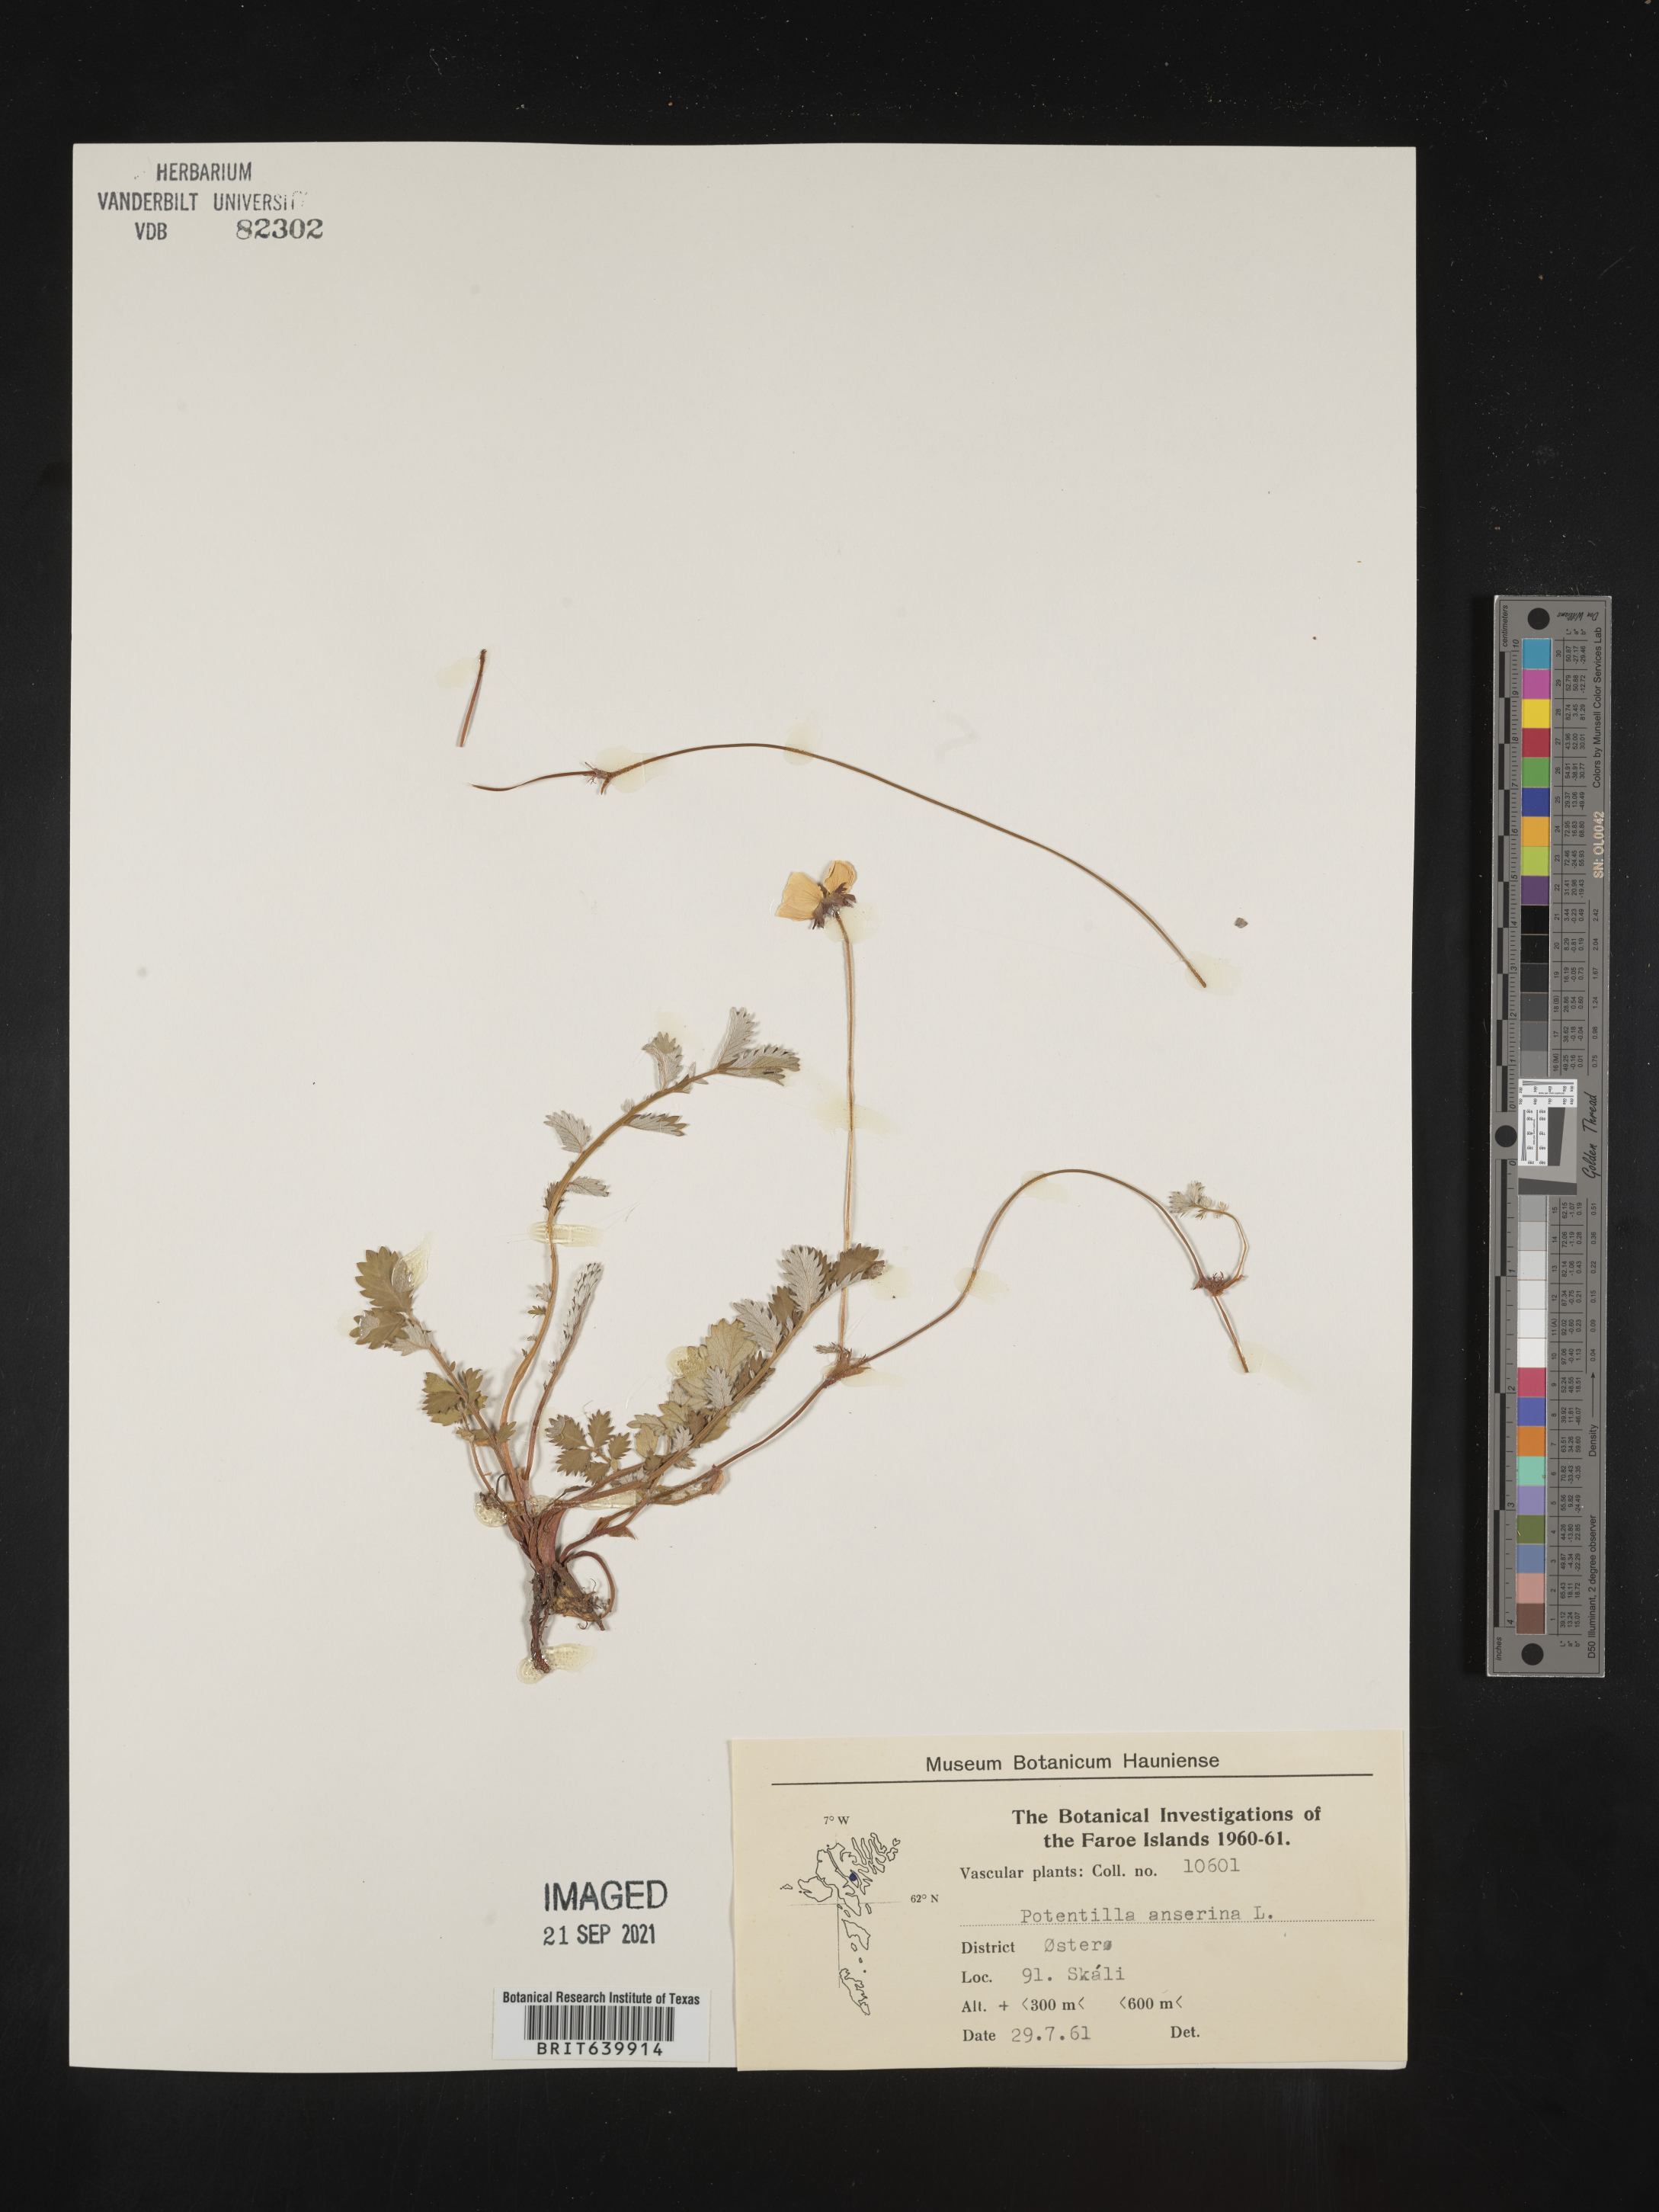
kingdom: Plantae
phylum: Tracheophyta
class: Magnoliopsida
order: Rosales
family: Rosaceae
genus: Potentilla
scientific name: Potentilla
